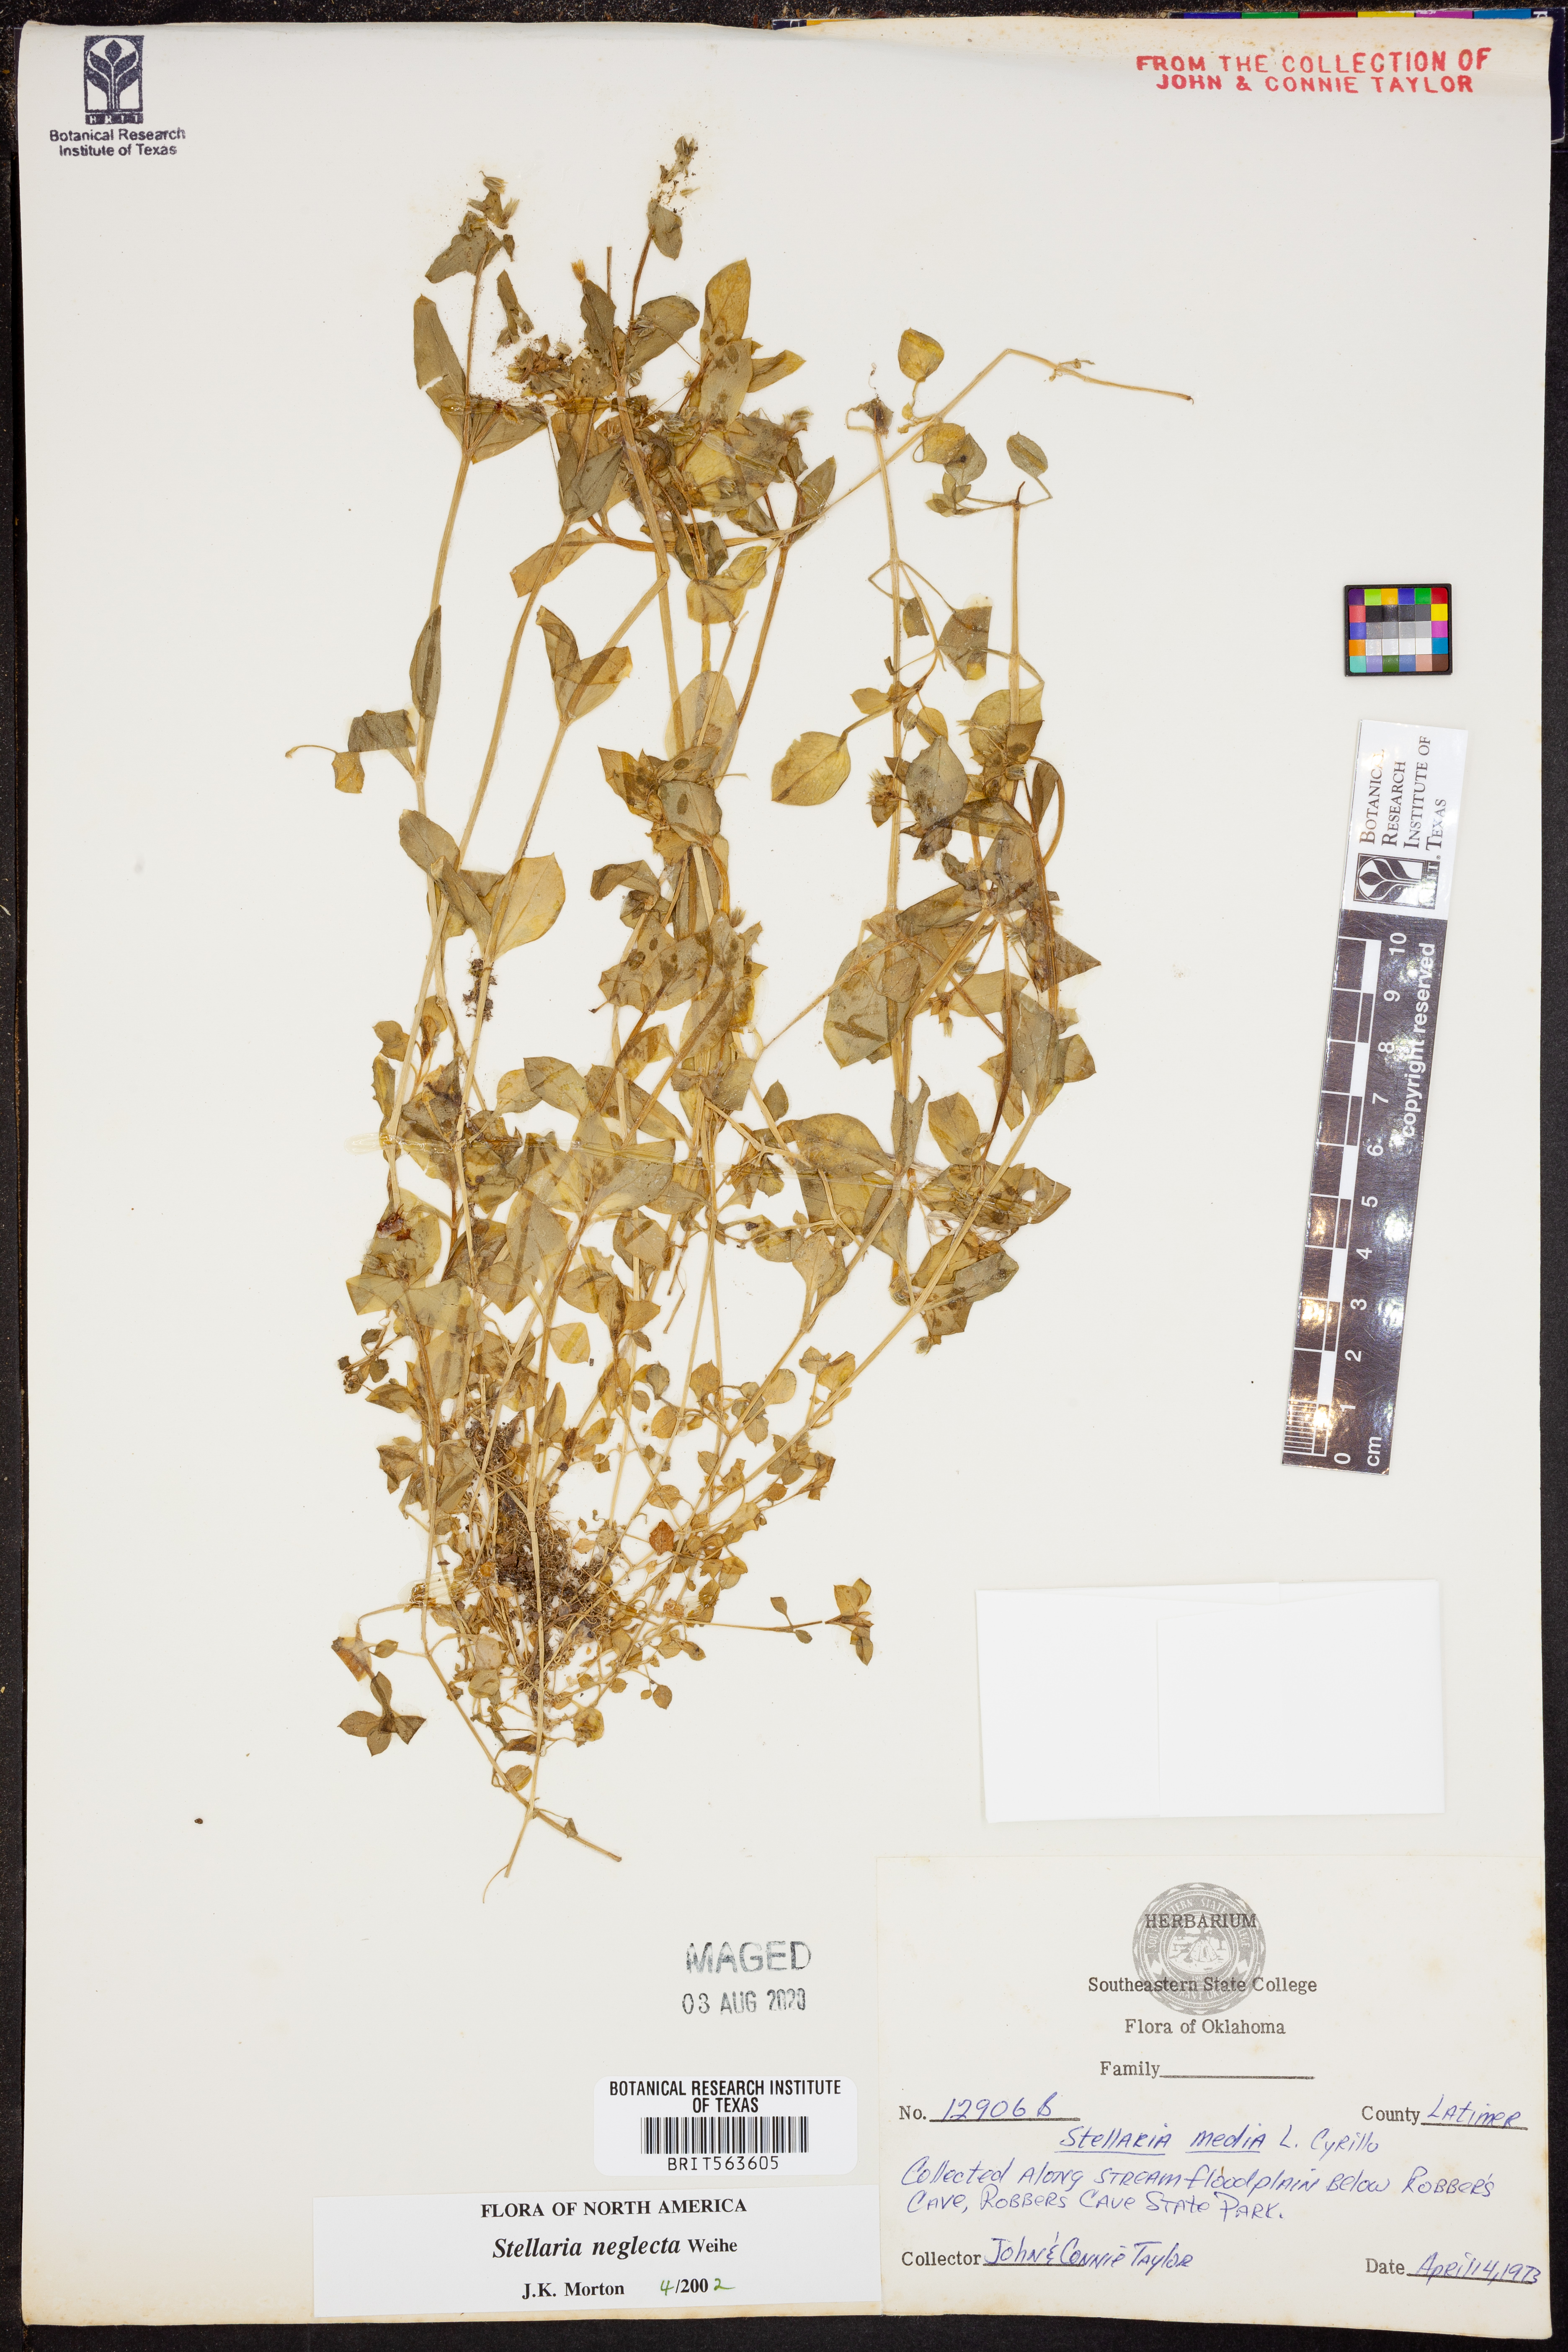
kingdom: Plantae
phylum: Tracheophyta
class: Magnoliopsida
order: Caryophyllales
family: Caryophyllaceae
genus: Stellaria
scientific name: Stellaria neglecta
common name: Greater chickweed
